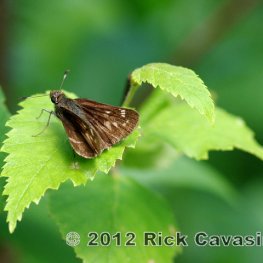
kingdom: Animalia
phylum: Arthropoda
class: Insecta
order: Lepidoptera
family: Hesperiidae
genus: Lon
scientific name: Lon hobomok
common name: Hobomok Skipper
